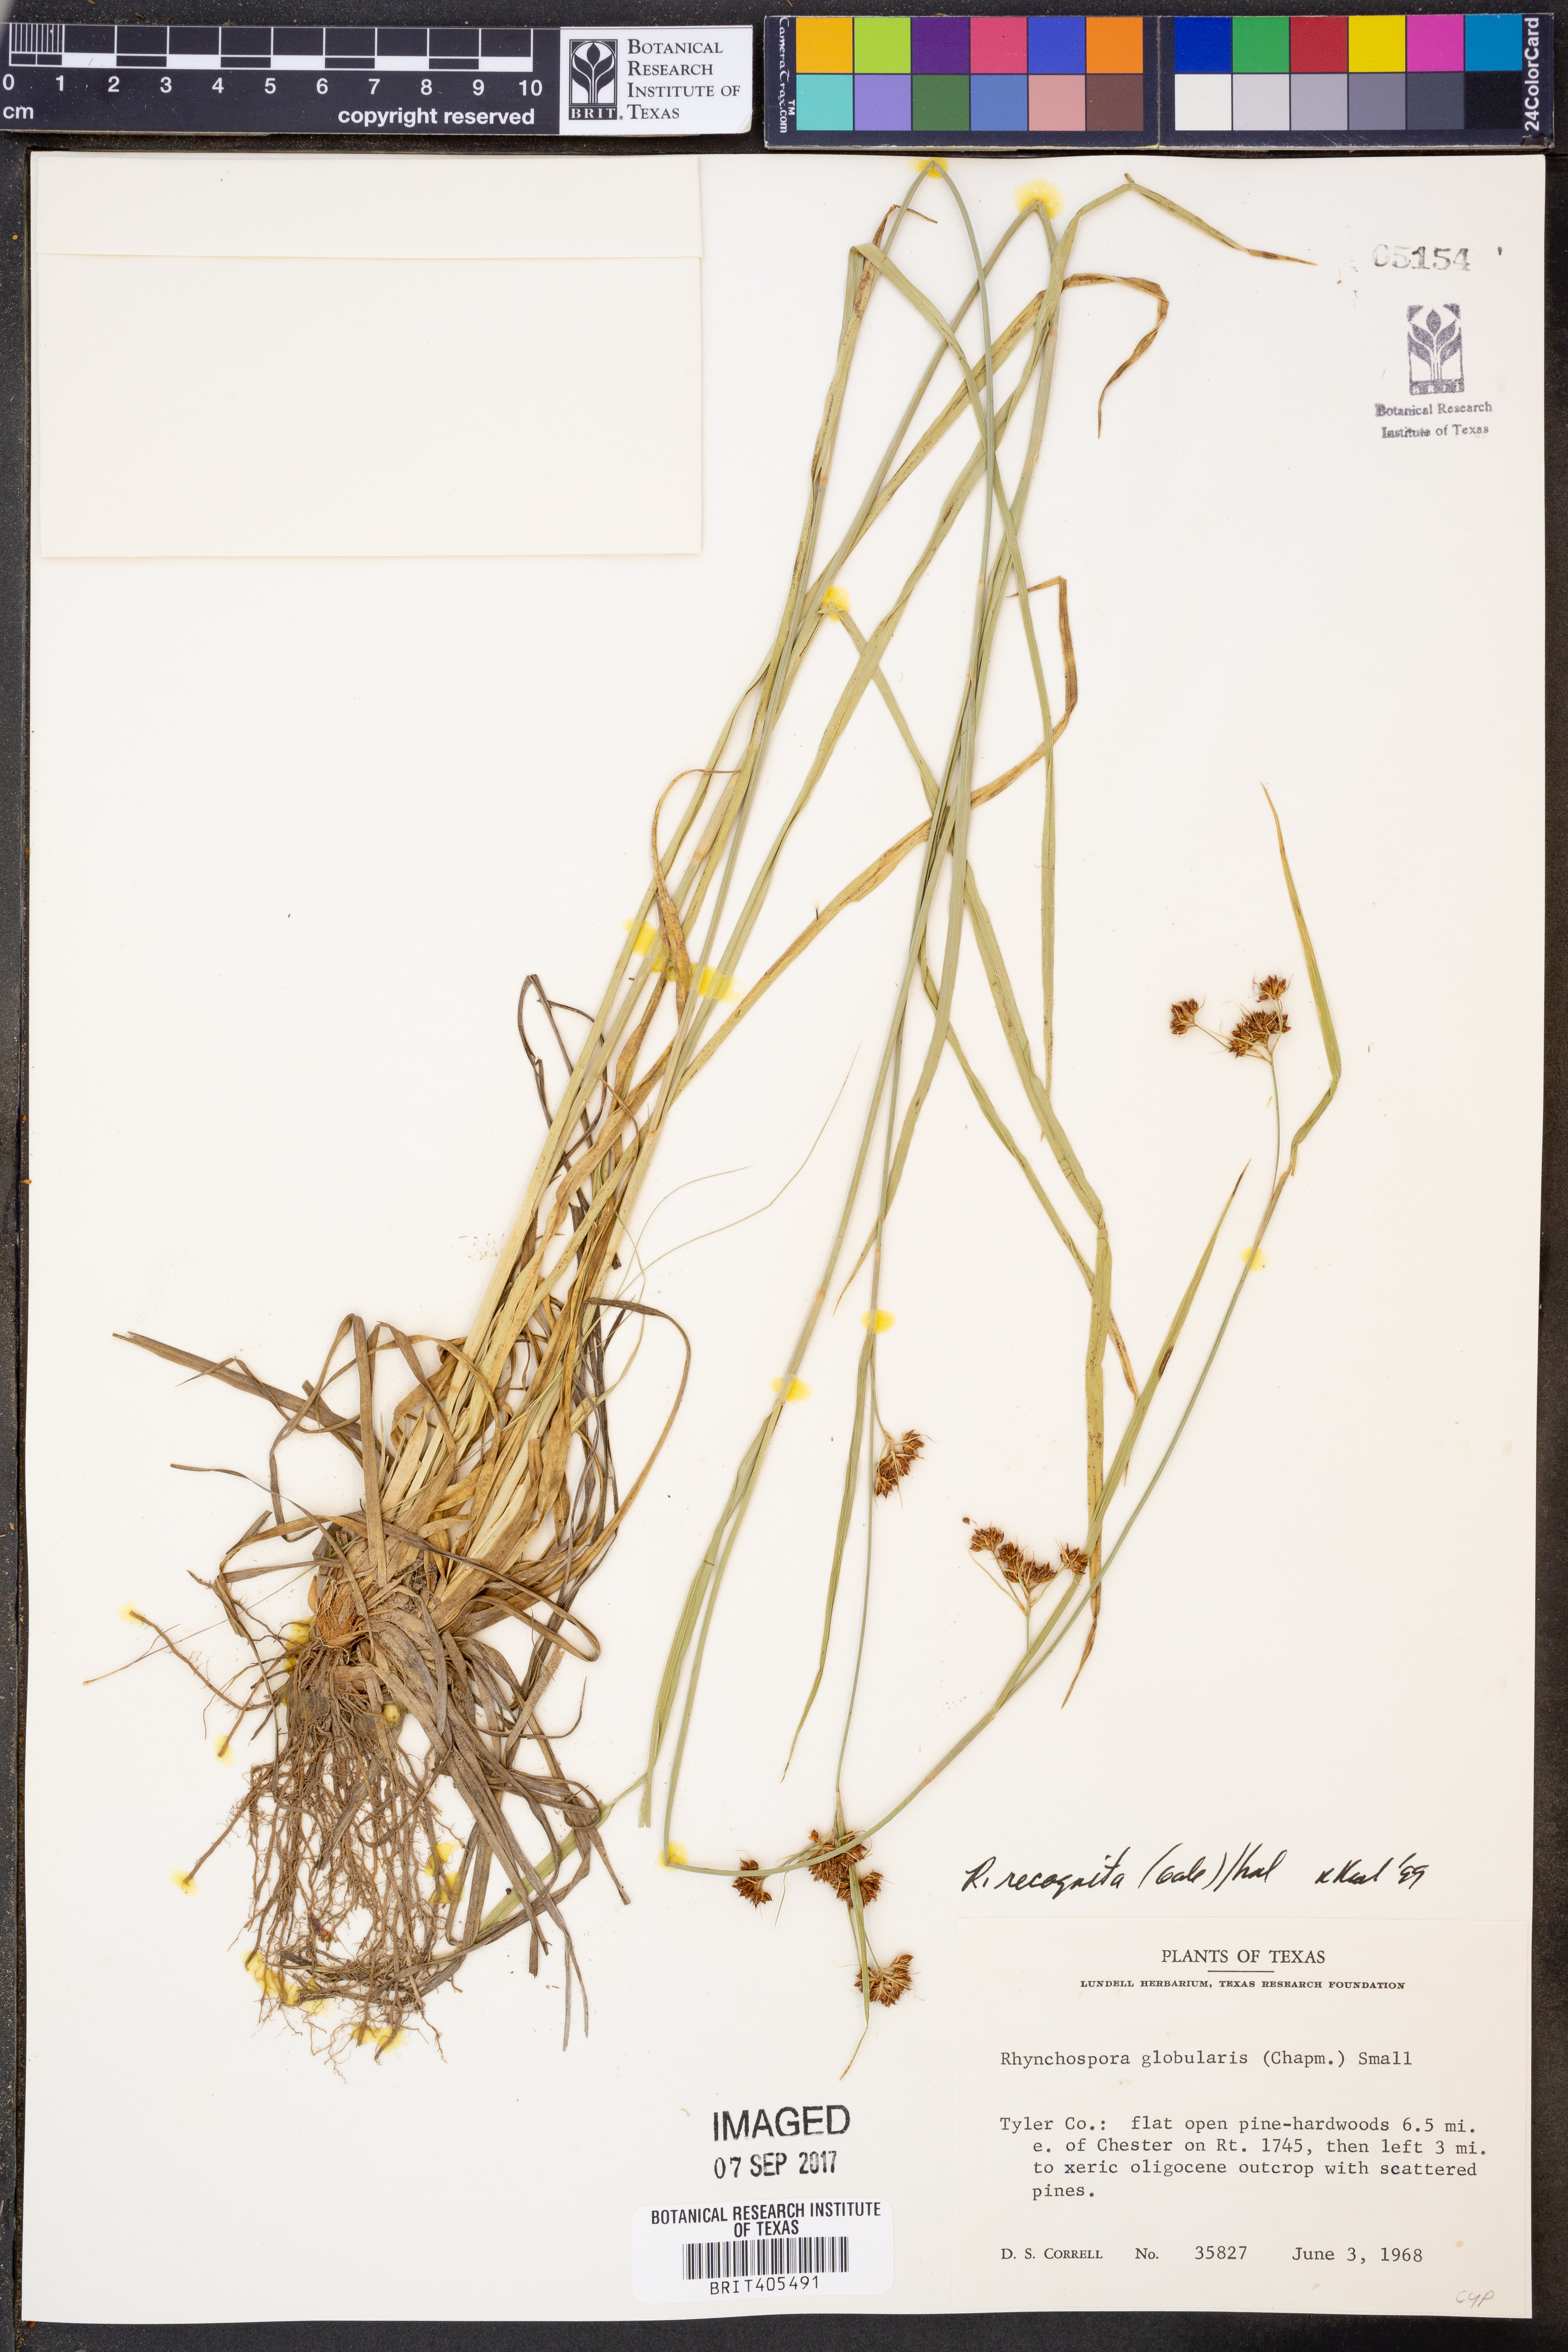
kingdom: Plantae
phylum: Tracheophyta
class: Liliopsida
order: Poales
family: Cyperaceae
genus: Rhynchospora
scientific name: Rhynchospora recognita
